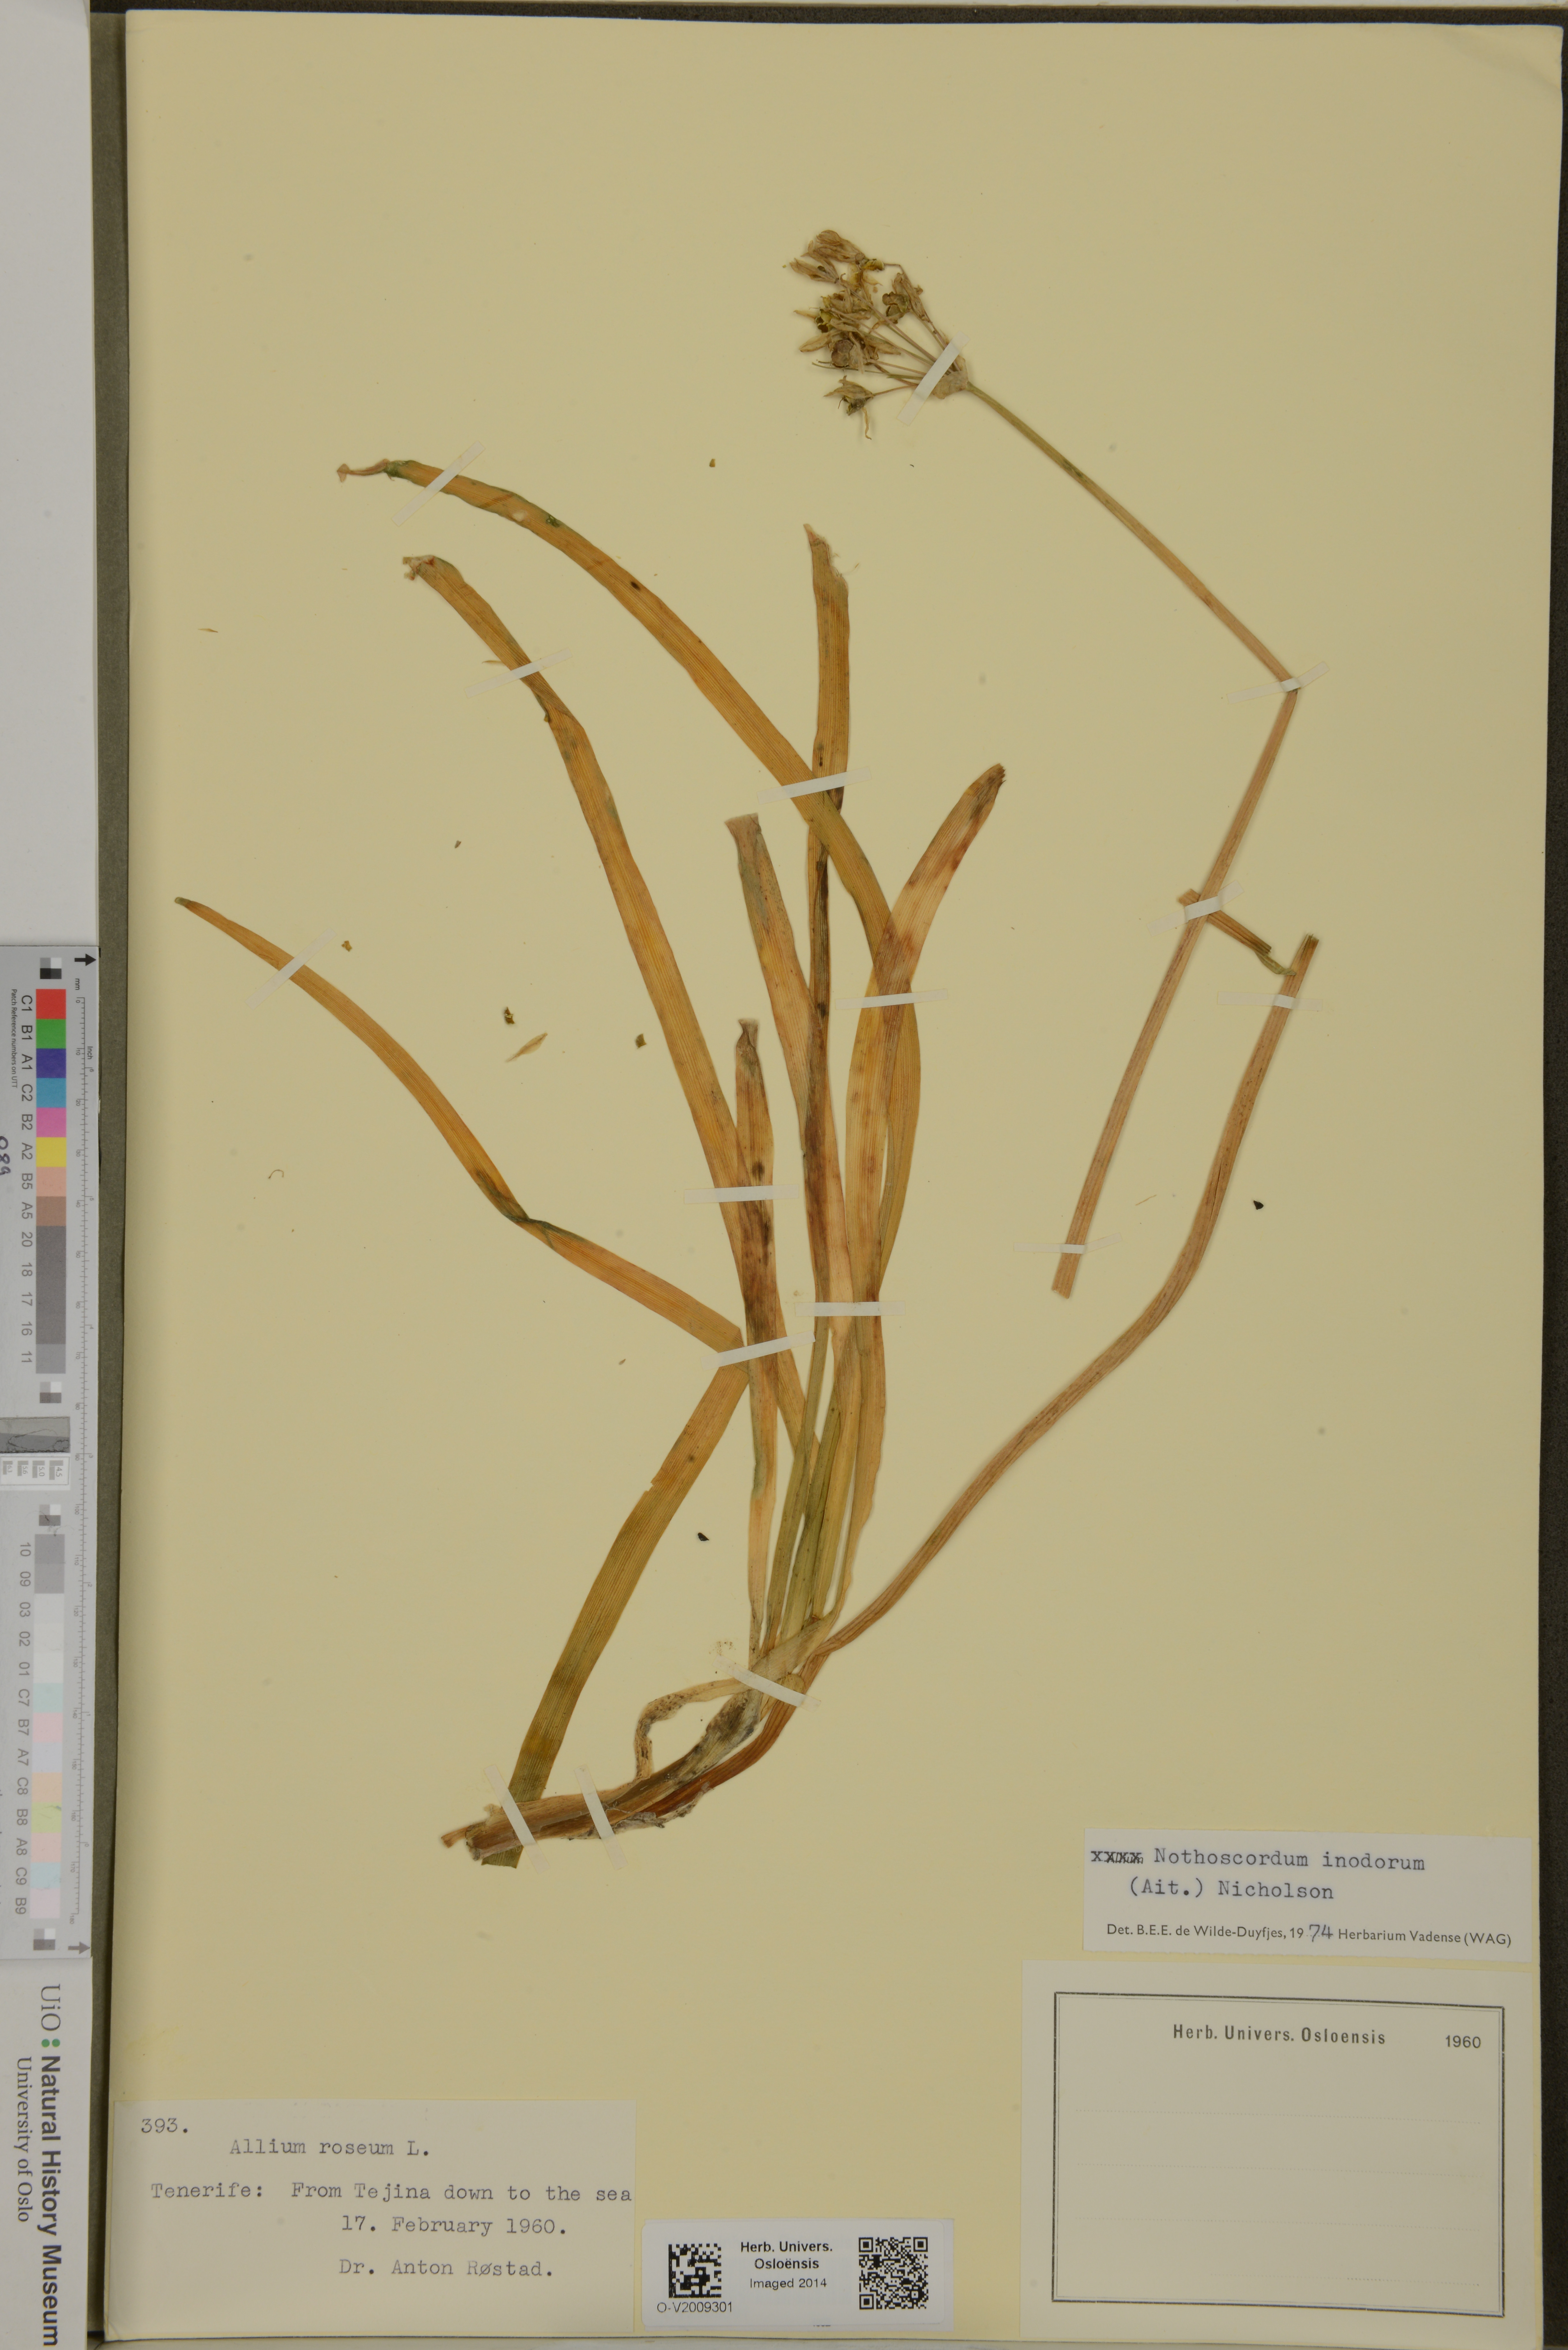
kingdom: Plantae
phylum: Tracheophyta
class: Liliopsida
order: Asparagales
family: Amaryllidaceae
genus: Allium
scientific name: Allium neapolitanum
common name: Neapolitan garlic
